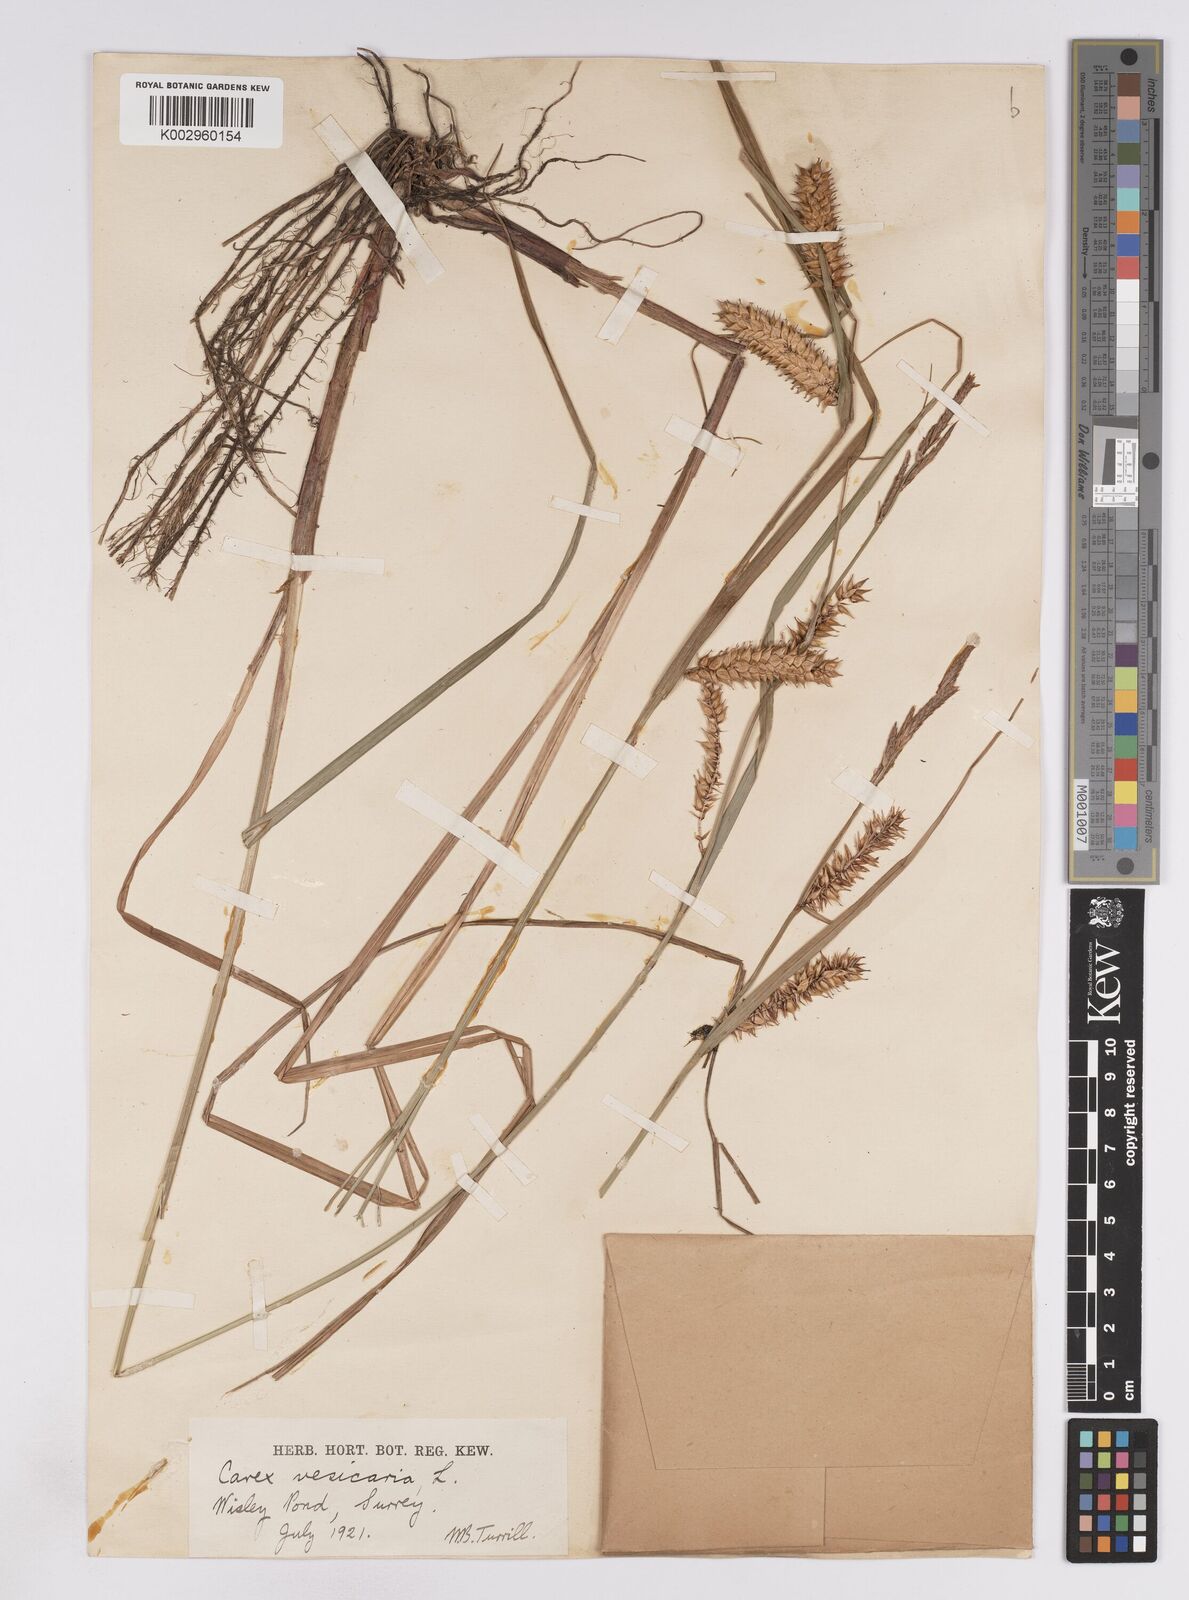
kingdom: Plantae
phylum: Tracheophyta
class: Liliopsida
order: Poales
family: Cyperaceae
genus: Carex
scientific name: Carex vesicaria
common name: Bladder-sedge
